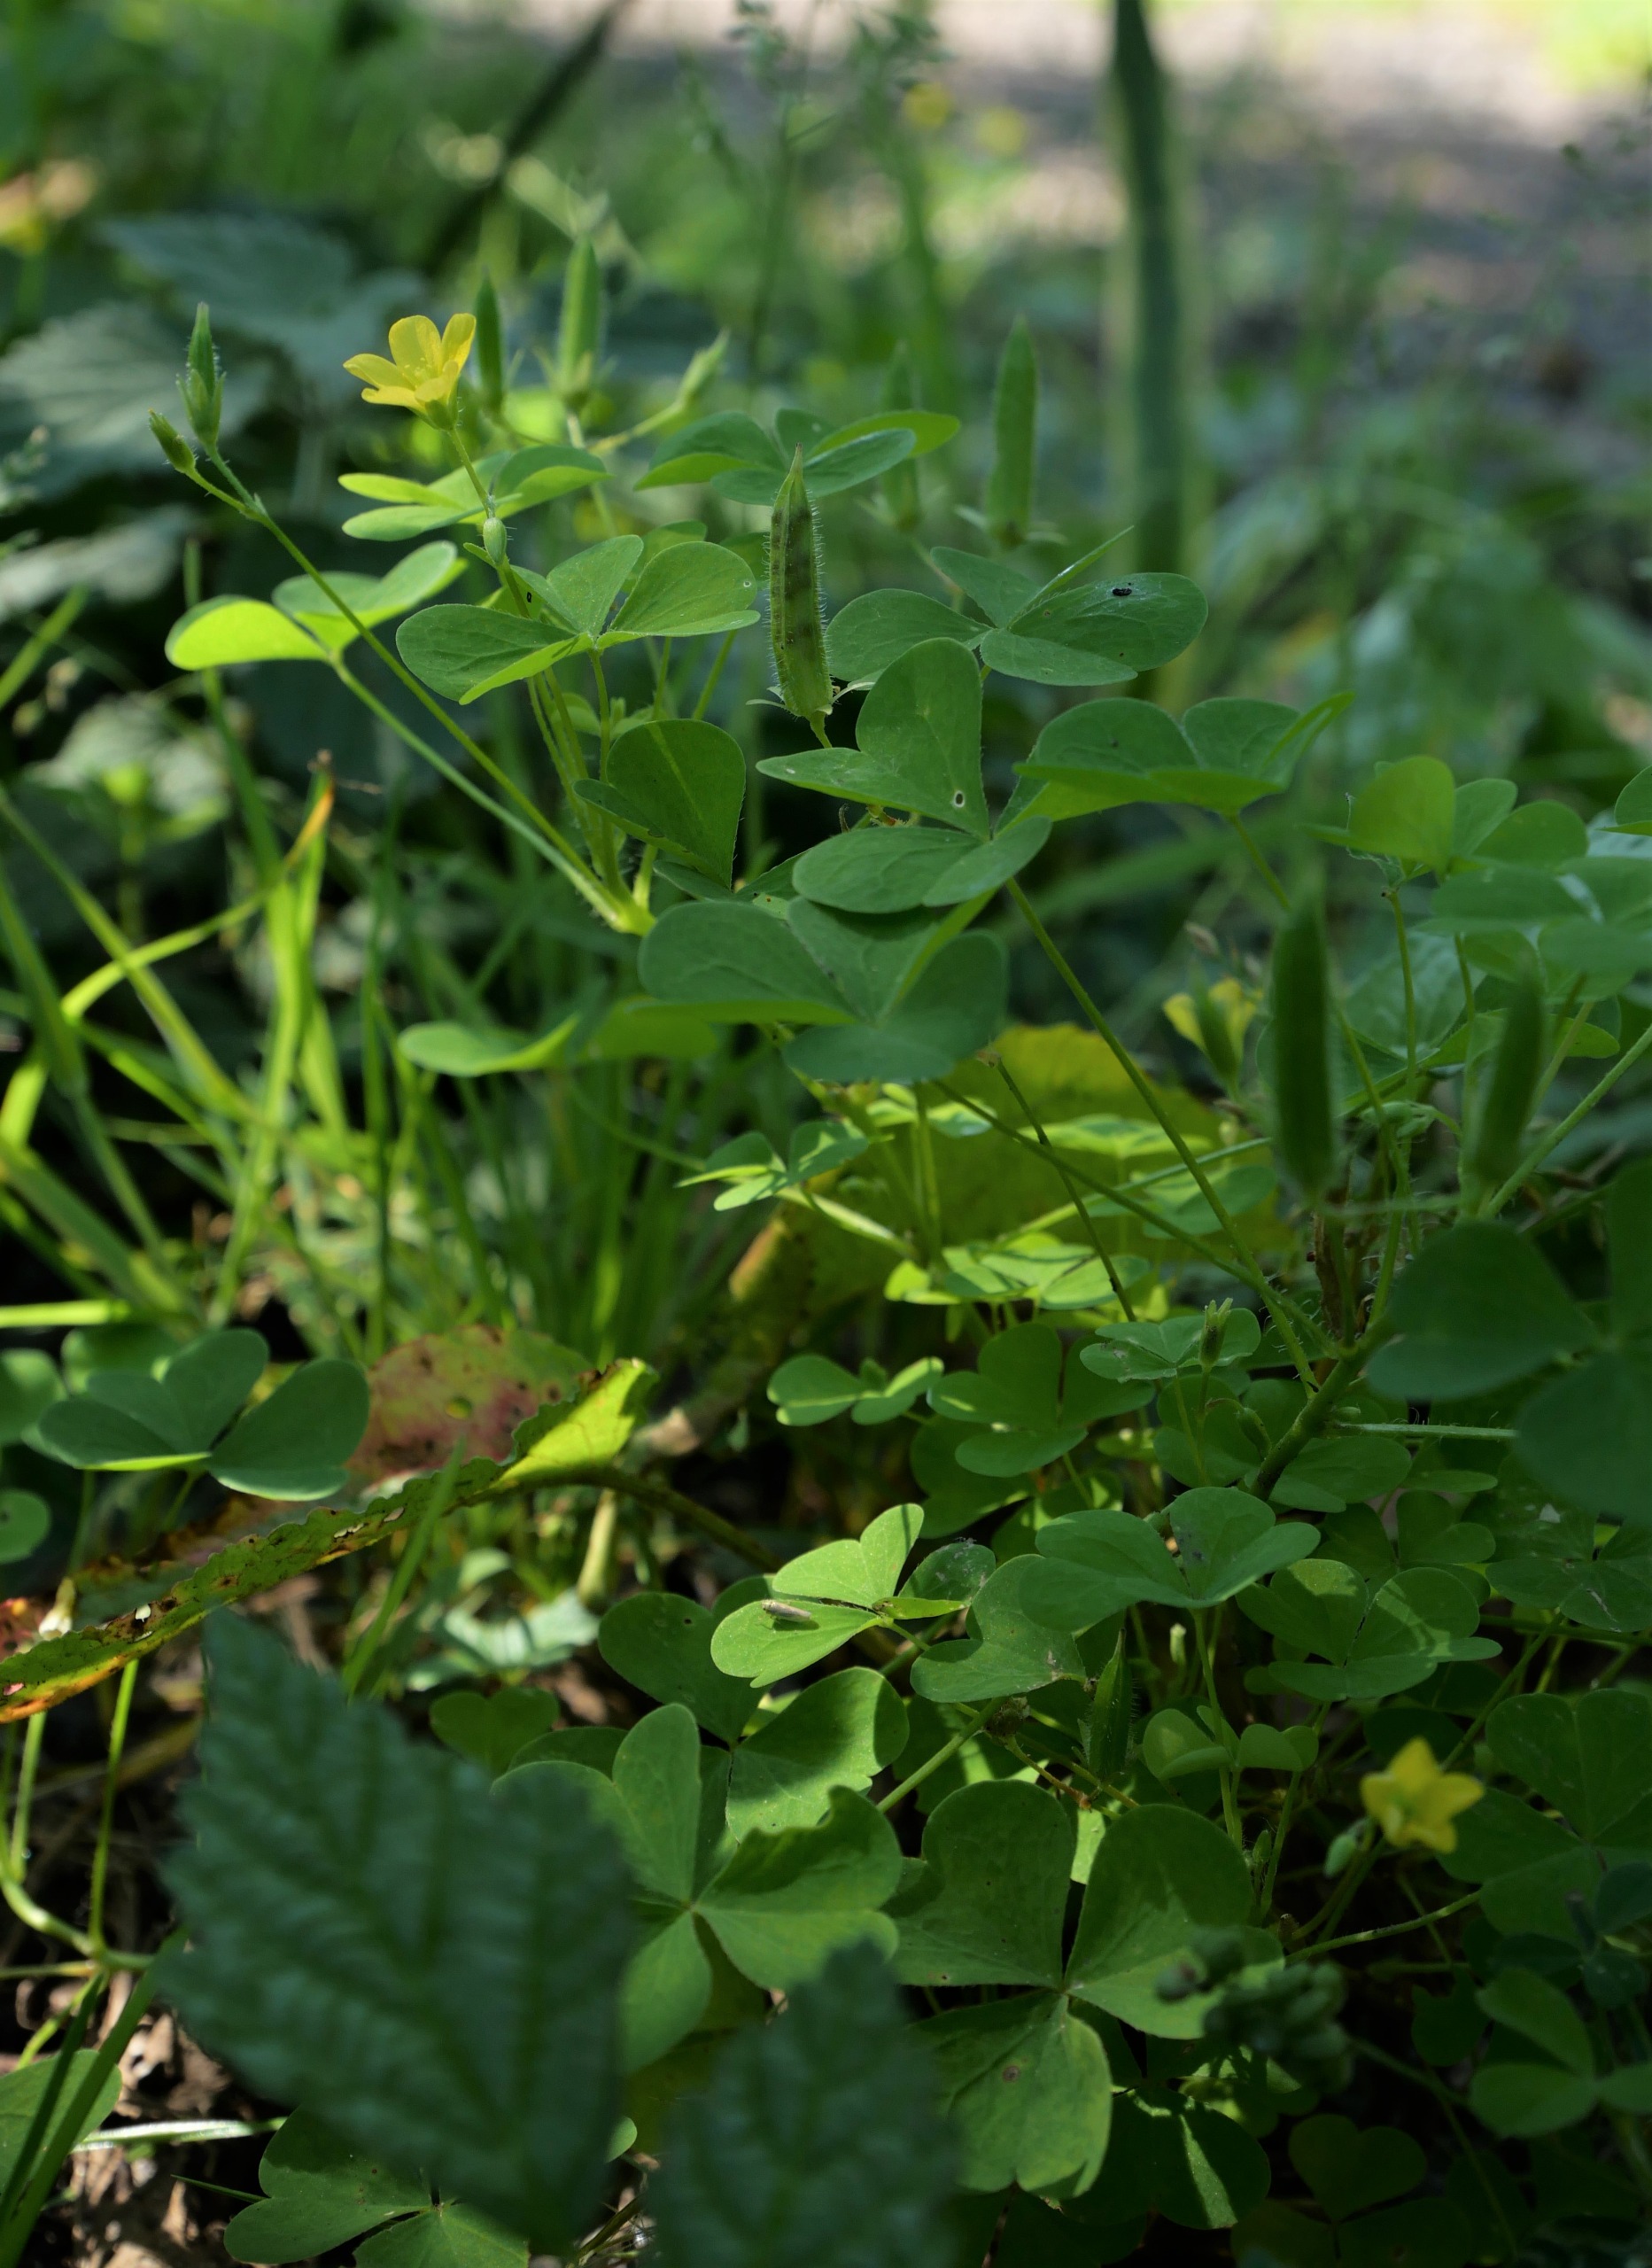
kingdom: Plantae
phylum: Tracheophyta
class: Magnoliopsida
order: Oxalidales
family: Oxalidaceae
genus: Oxalis
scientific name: Oxalis stricta
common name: Rank surkløver
